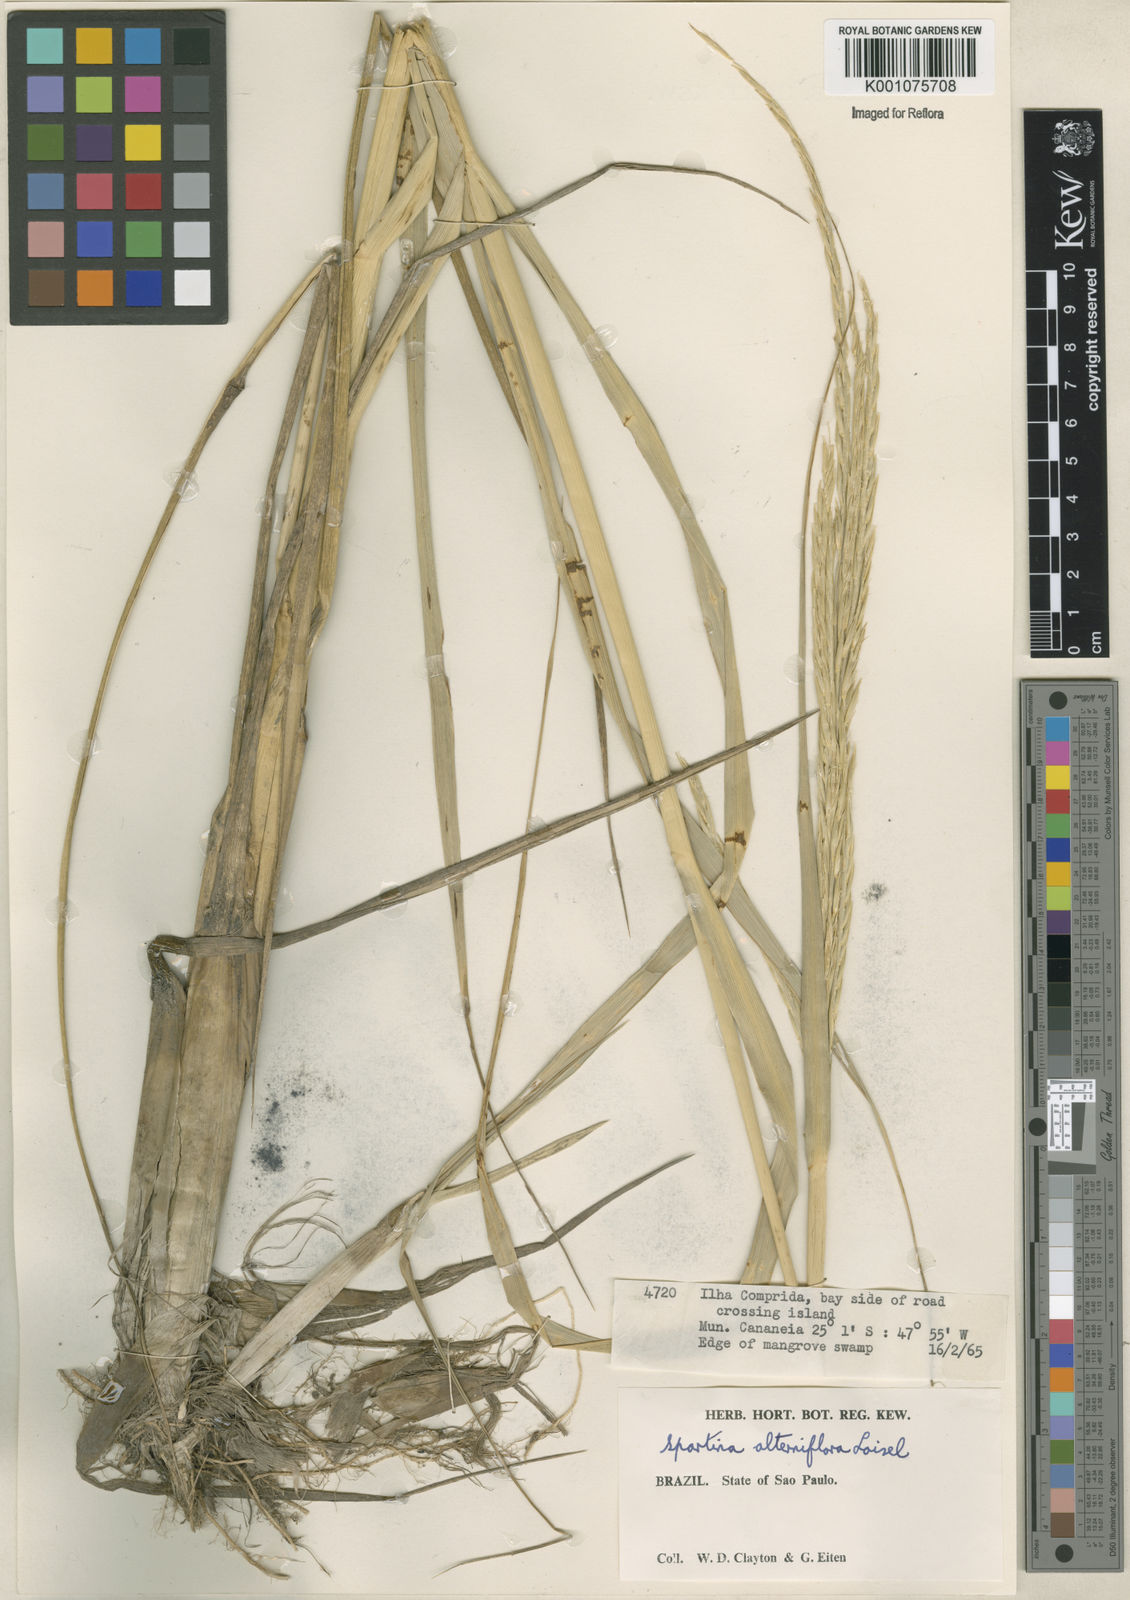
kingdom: Animalia
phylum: Mollusca
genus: Spartina
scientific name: Spartina
